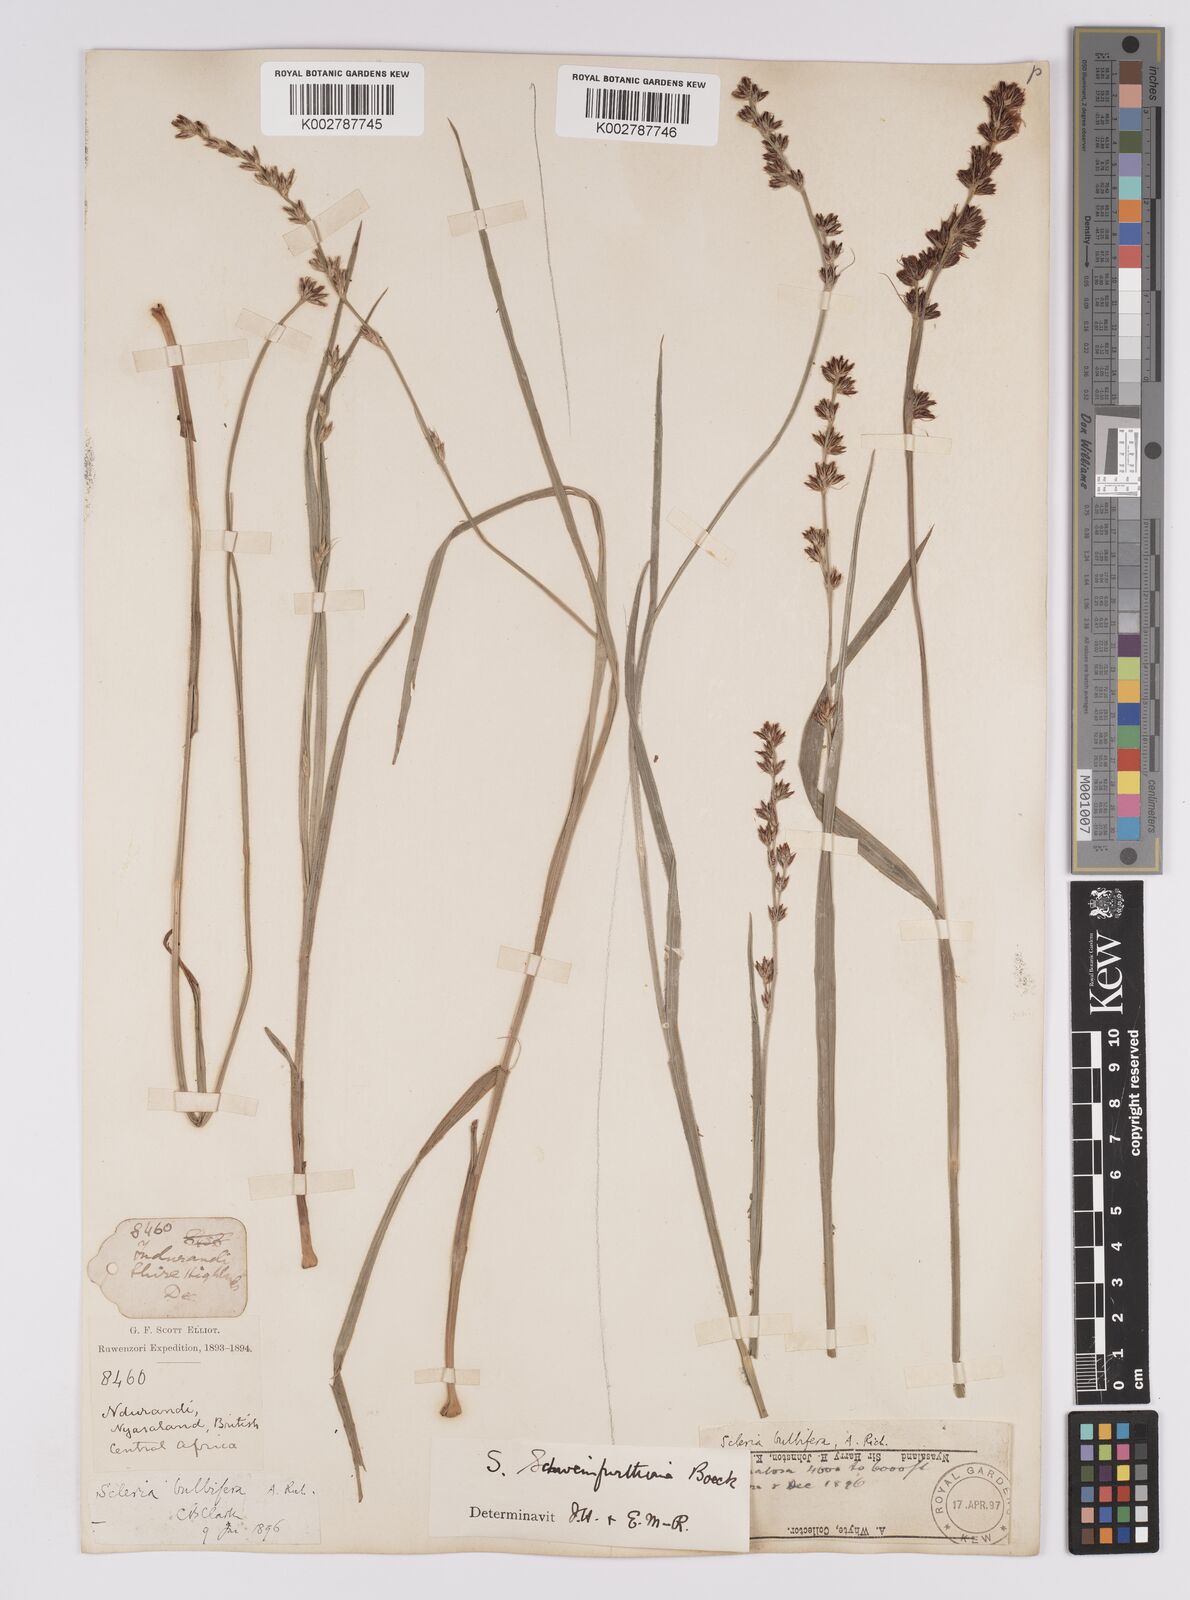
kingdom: Plantae
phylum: Tracheophyta
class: Liliopsida
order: Poales
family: Cyperaceae
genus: Scleria
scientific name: Scleria bulbifera
